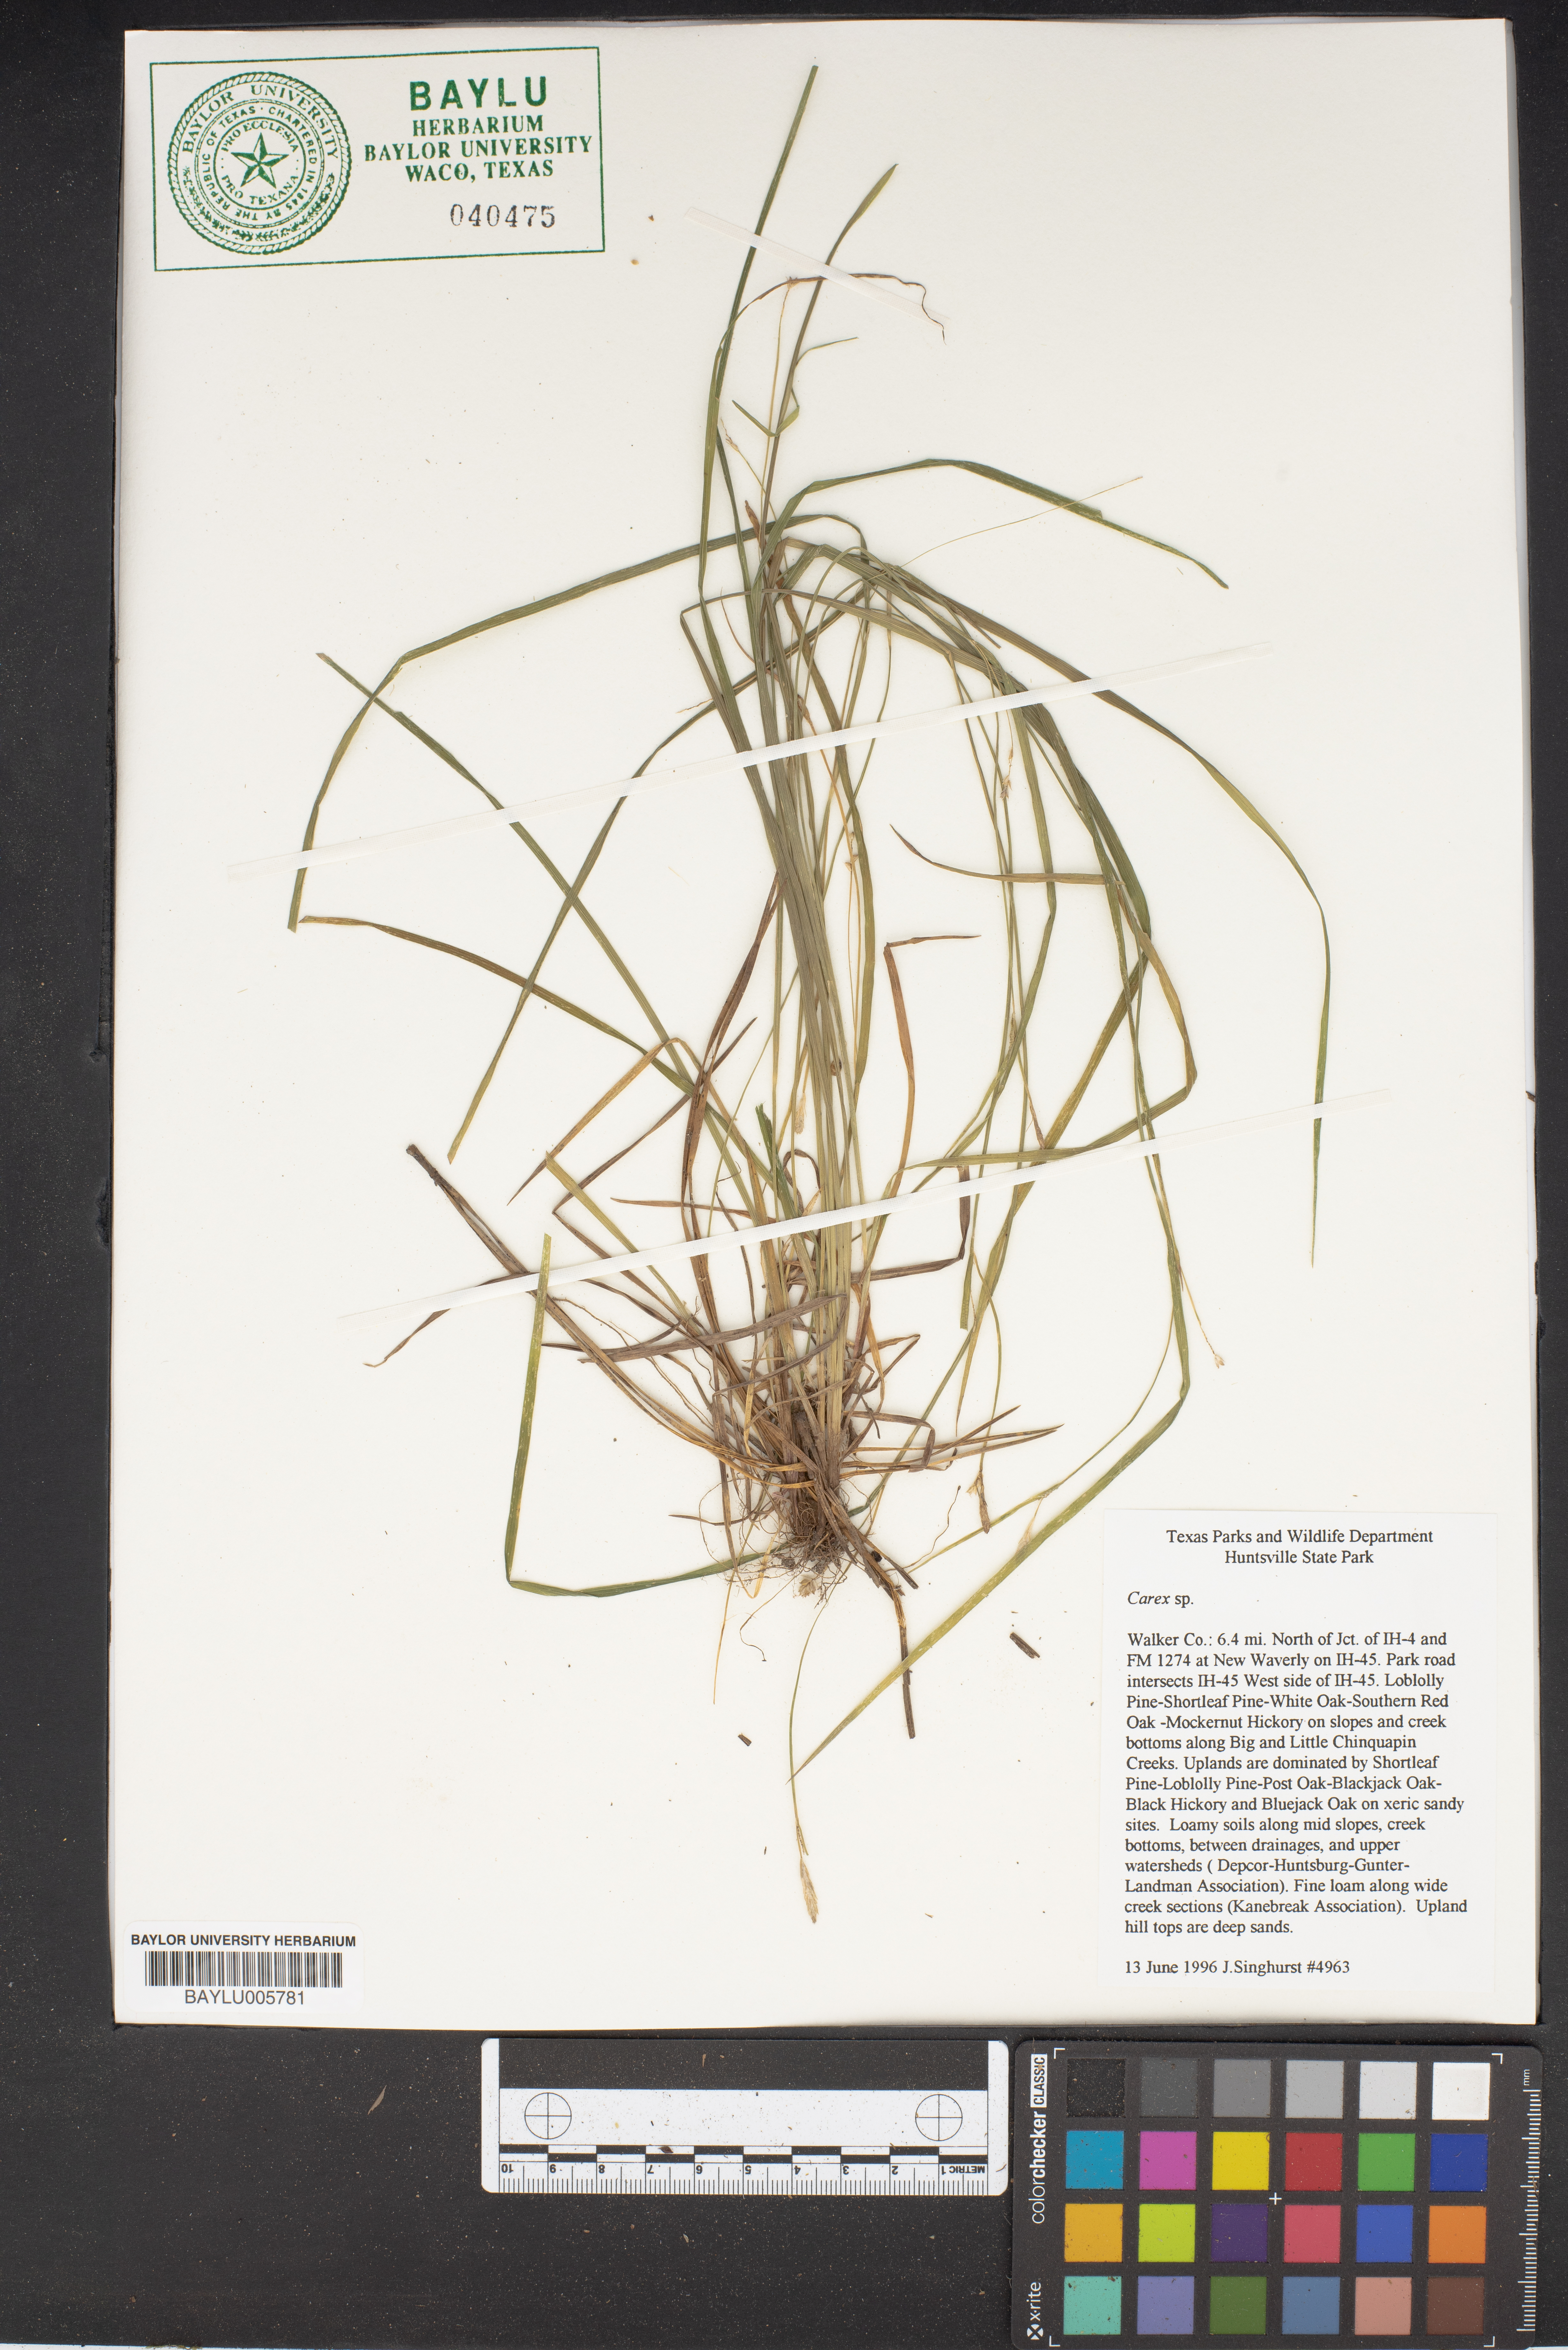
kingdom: Plantae
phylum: Tracheophyta
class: Liliopsida
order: Poales
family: Cyperaceae
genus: Carex
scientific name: Carex
